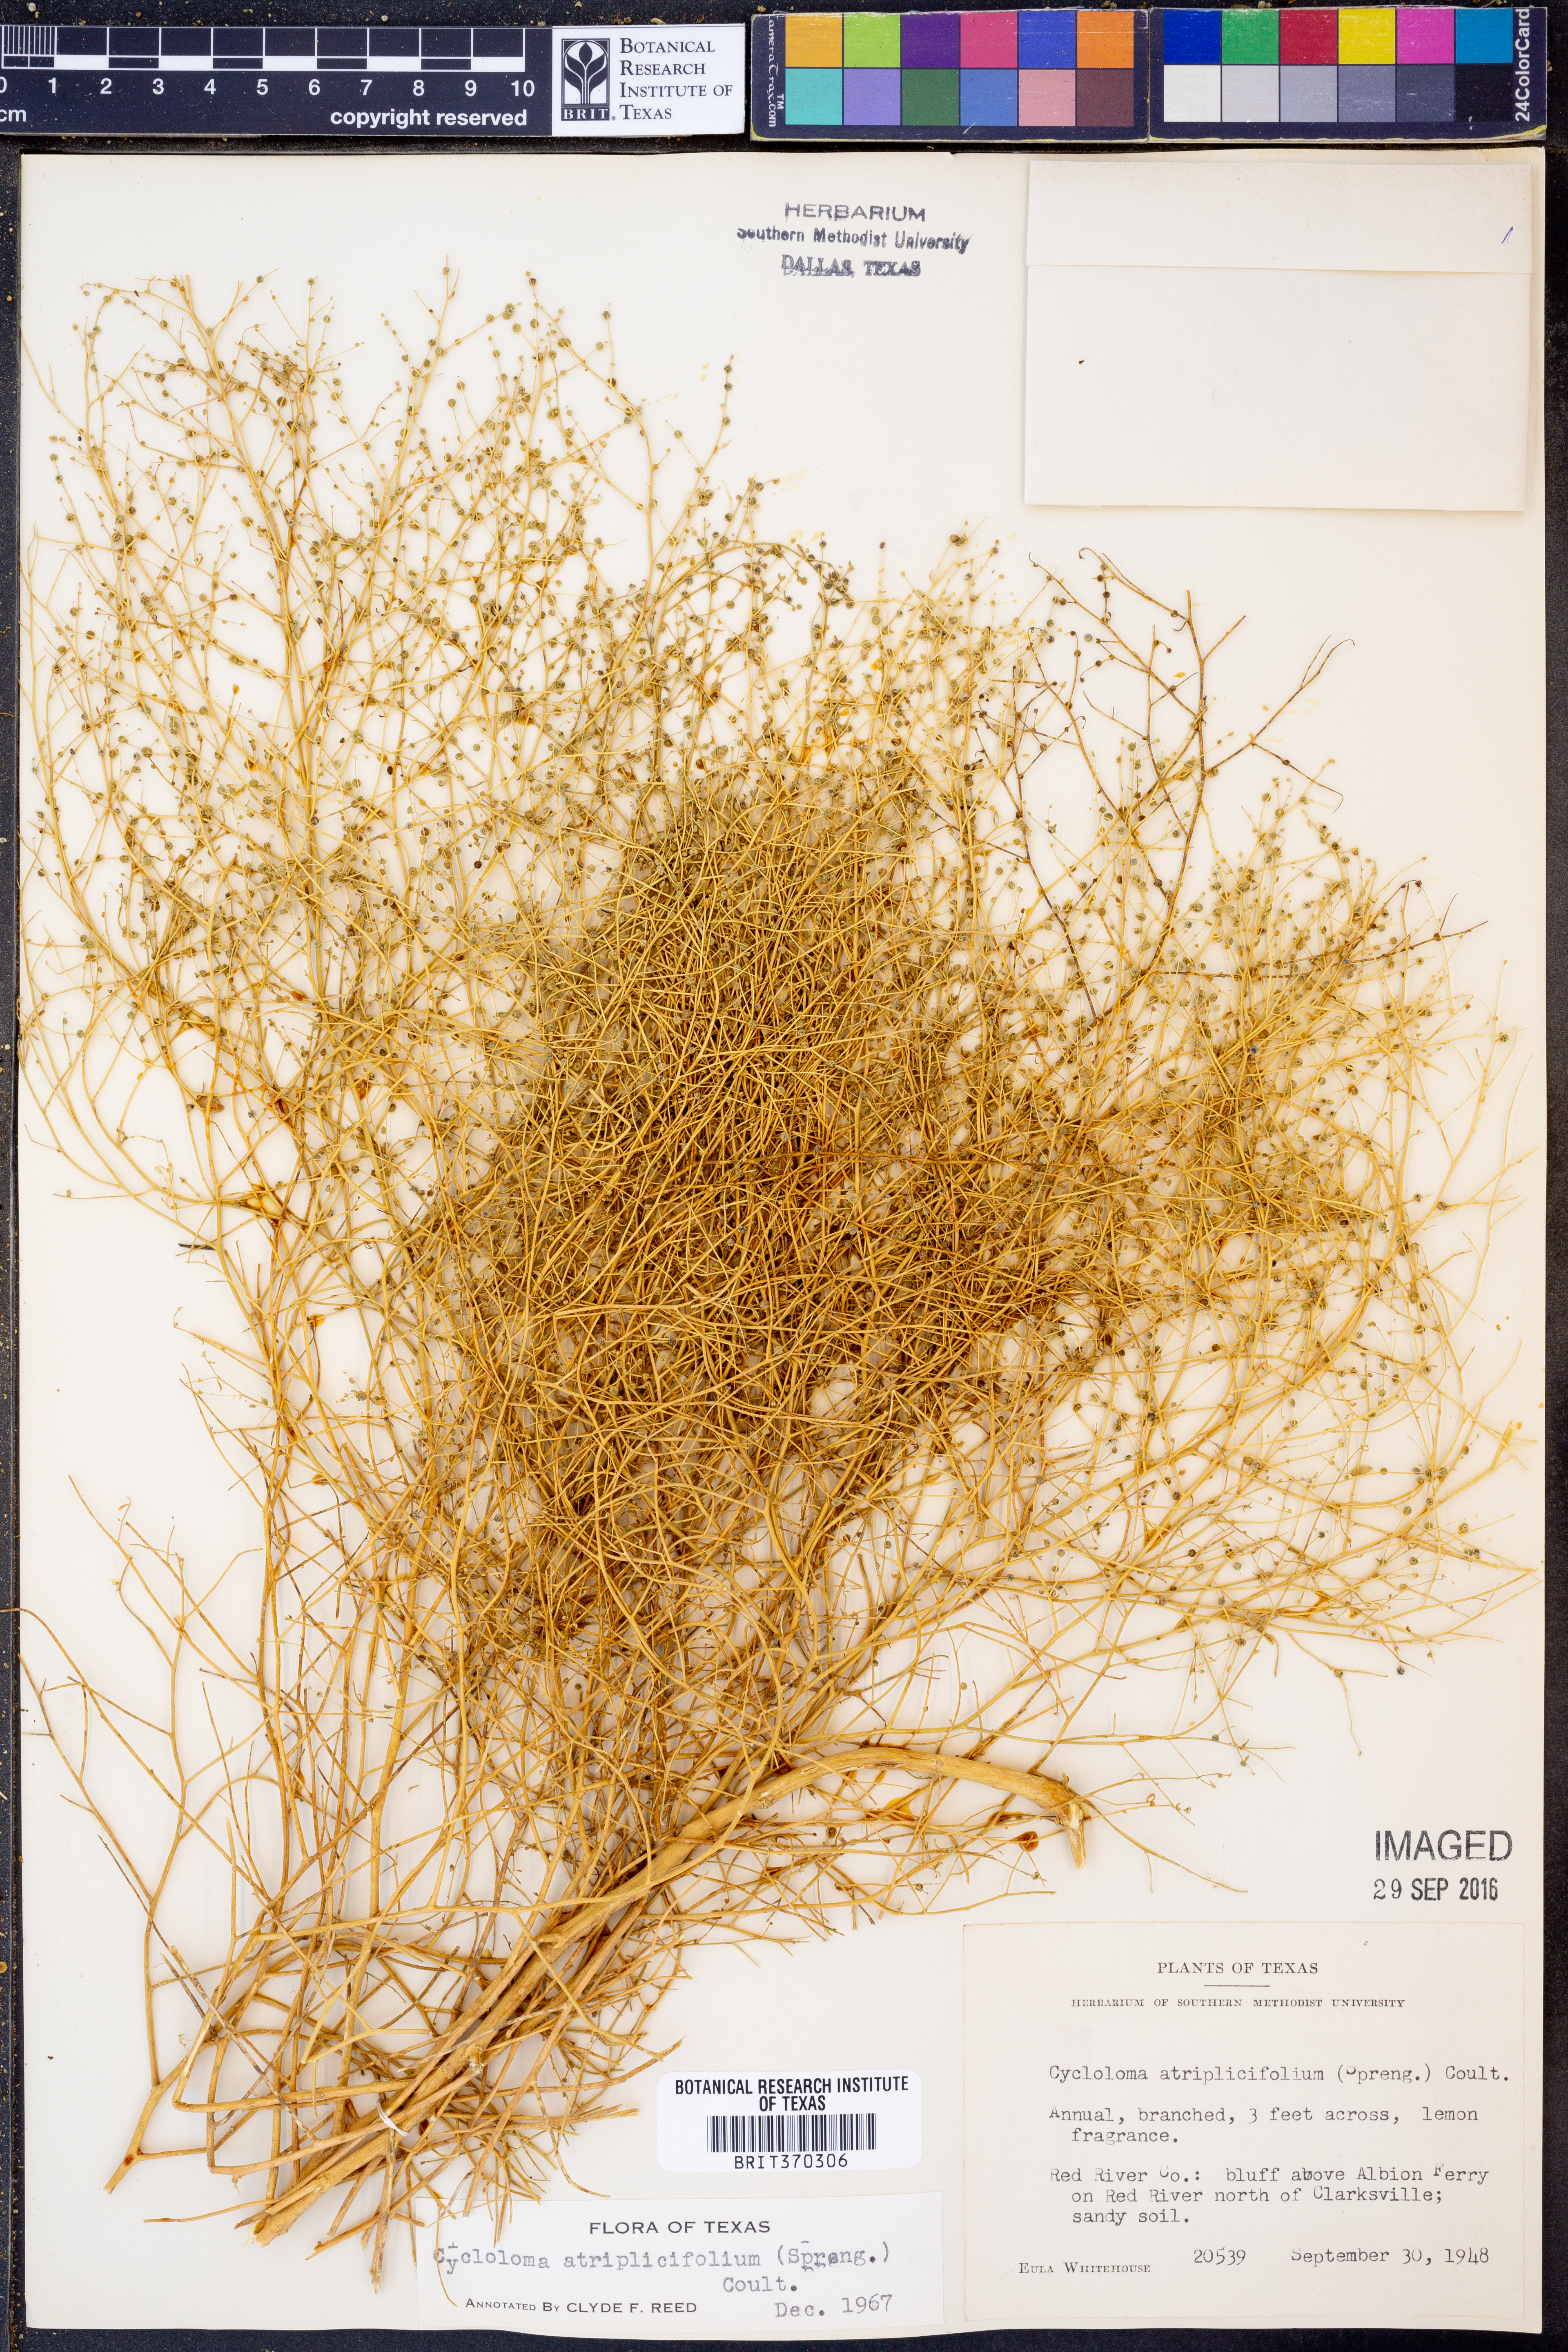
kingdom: Plantae
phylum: Tracheophyta
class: Magnoliopsida
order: Caryophyllales
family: Amaranthaceae
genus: Dysphania
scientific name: Dysphania atriplicifolia
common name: Plains tumbleweed
